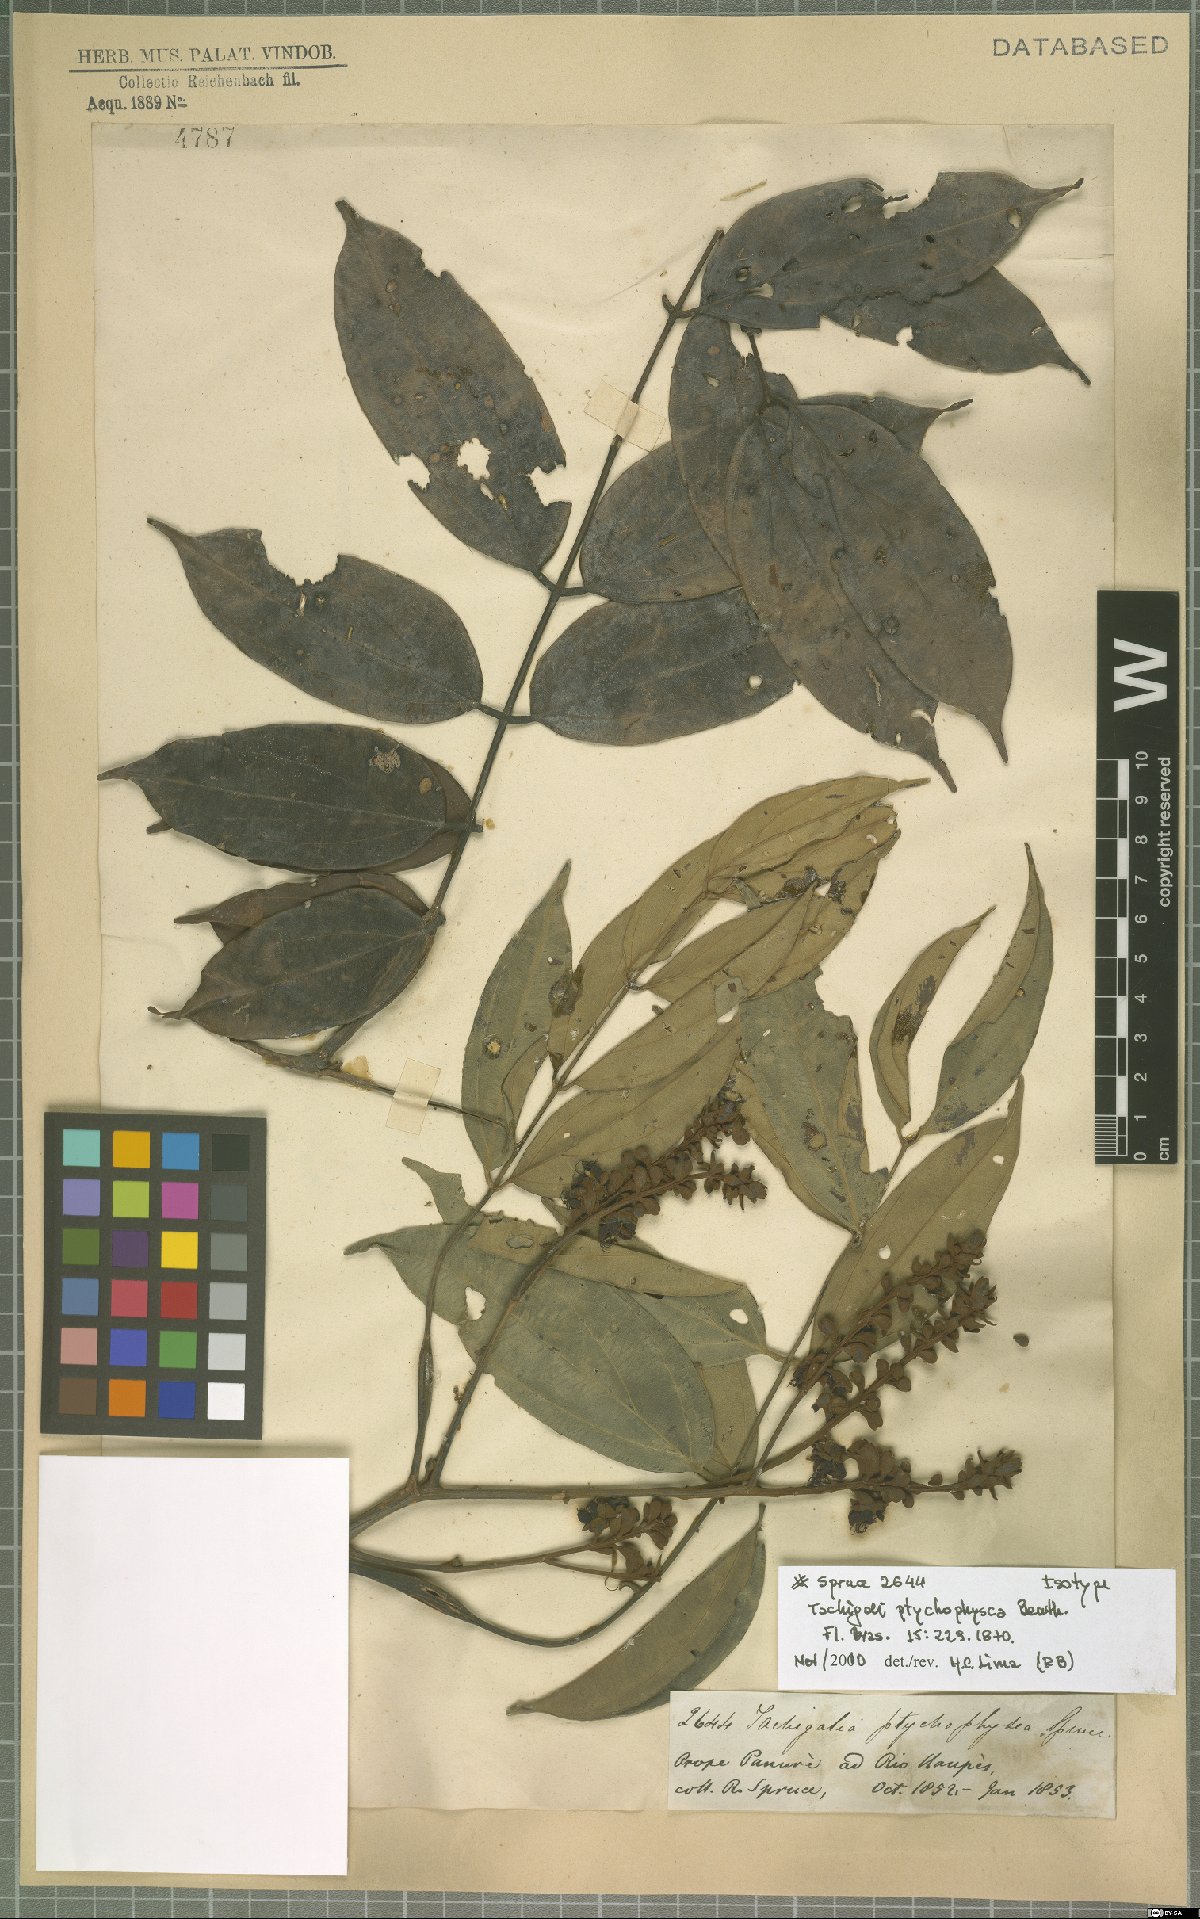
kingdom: Plantae
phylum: Tracheophyta
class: Magnoliopsida
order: Fabales
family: Fabaceae
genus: Tachigali
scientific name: Tachigali ptychophysca
